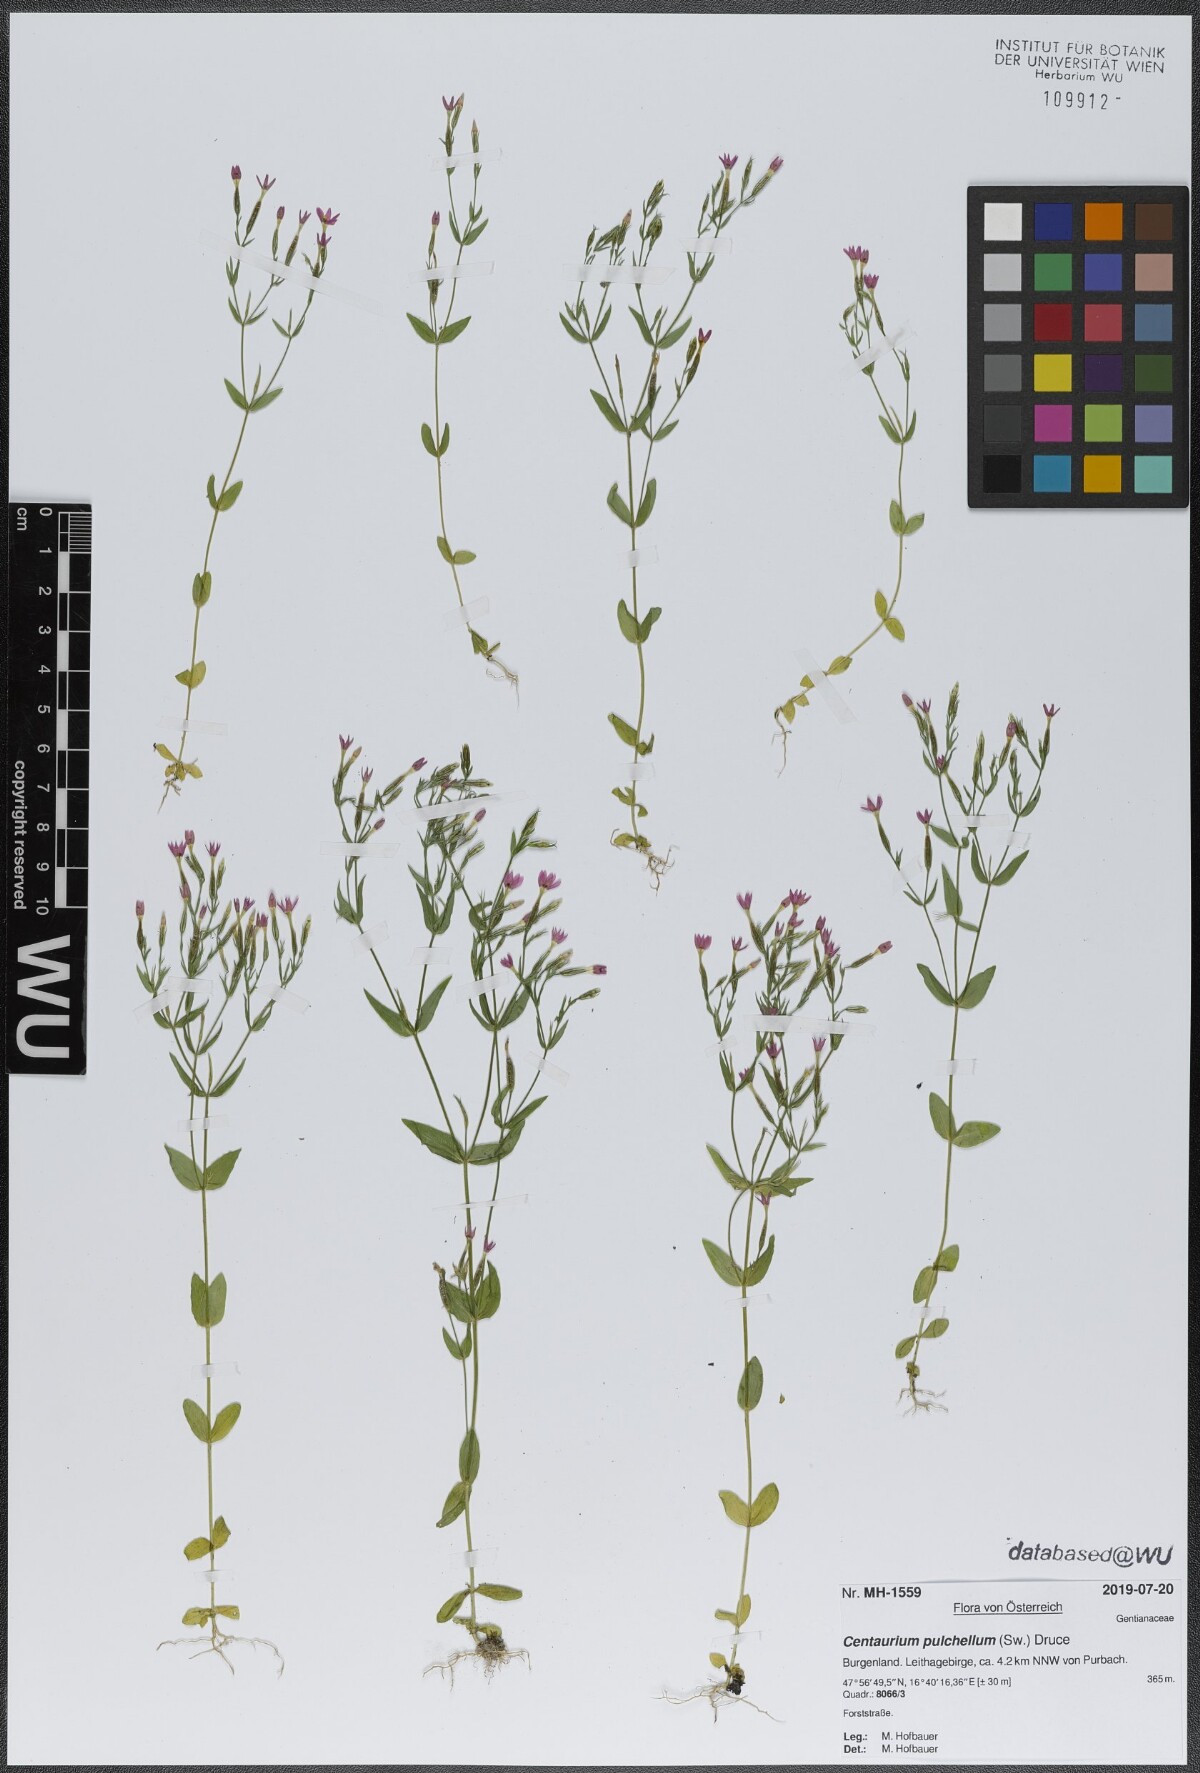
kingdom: Plantae
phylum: Tracheophyta
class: Magnoliopsida
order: Gentianales
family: Gentianaceae
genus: Centaurium
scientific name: Centaurium pulchellum
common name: Lesser centaury
